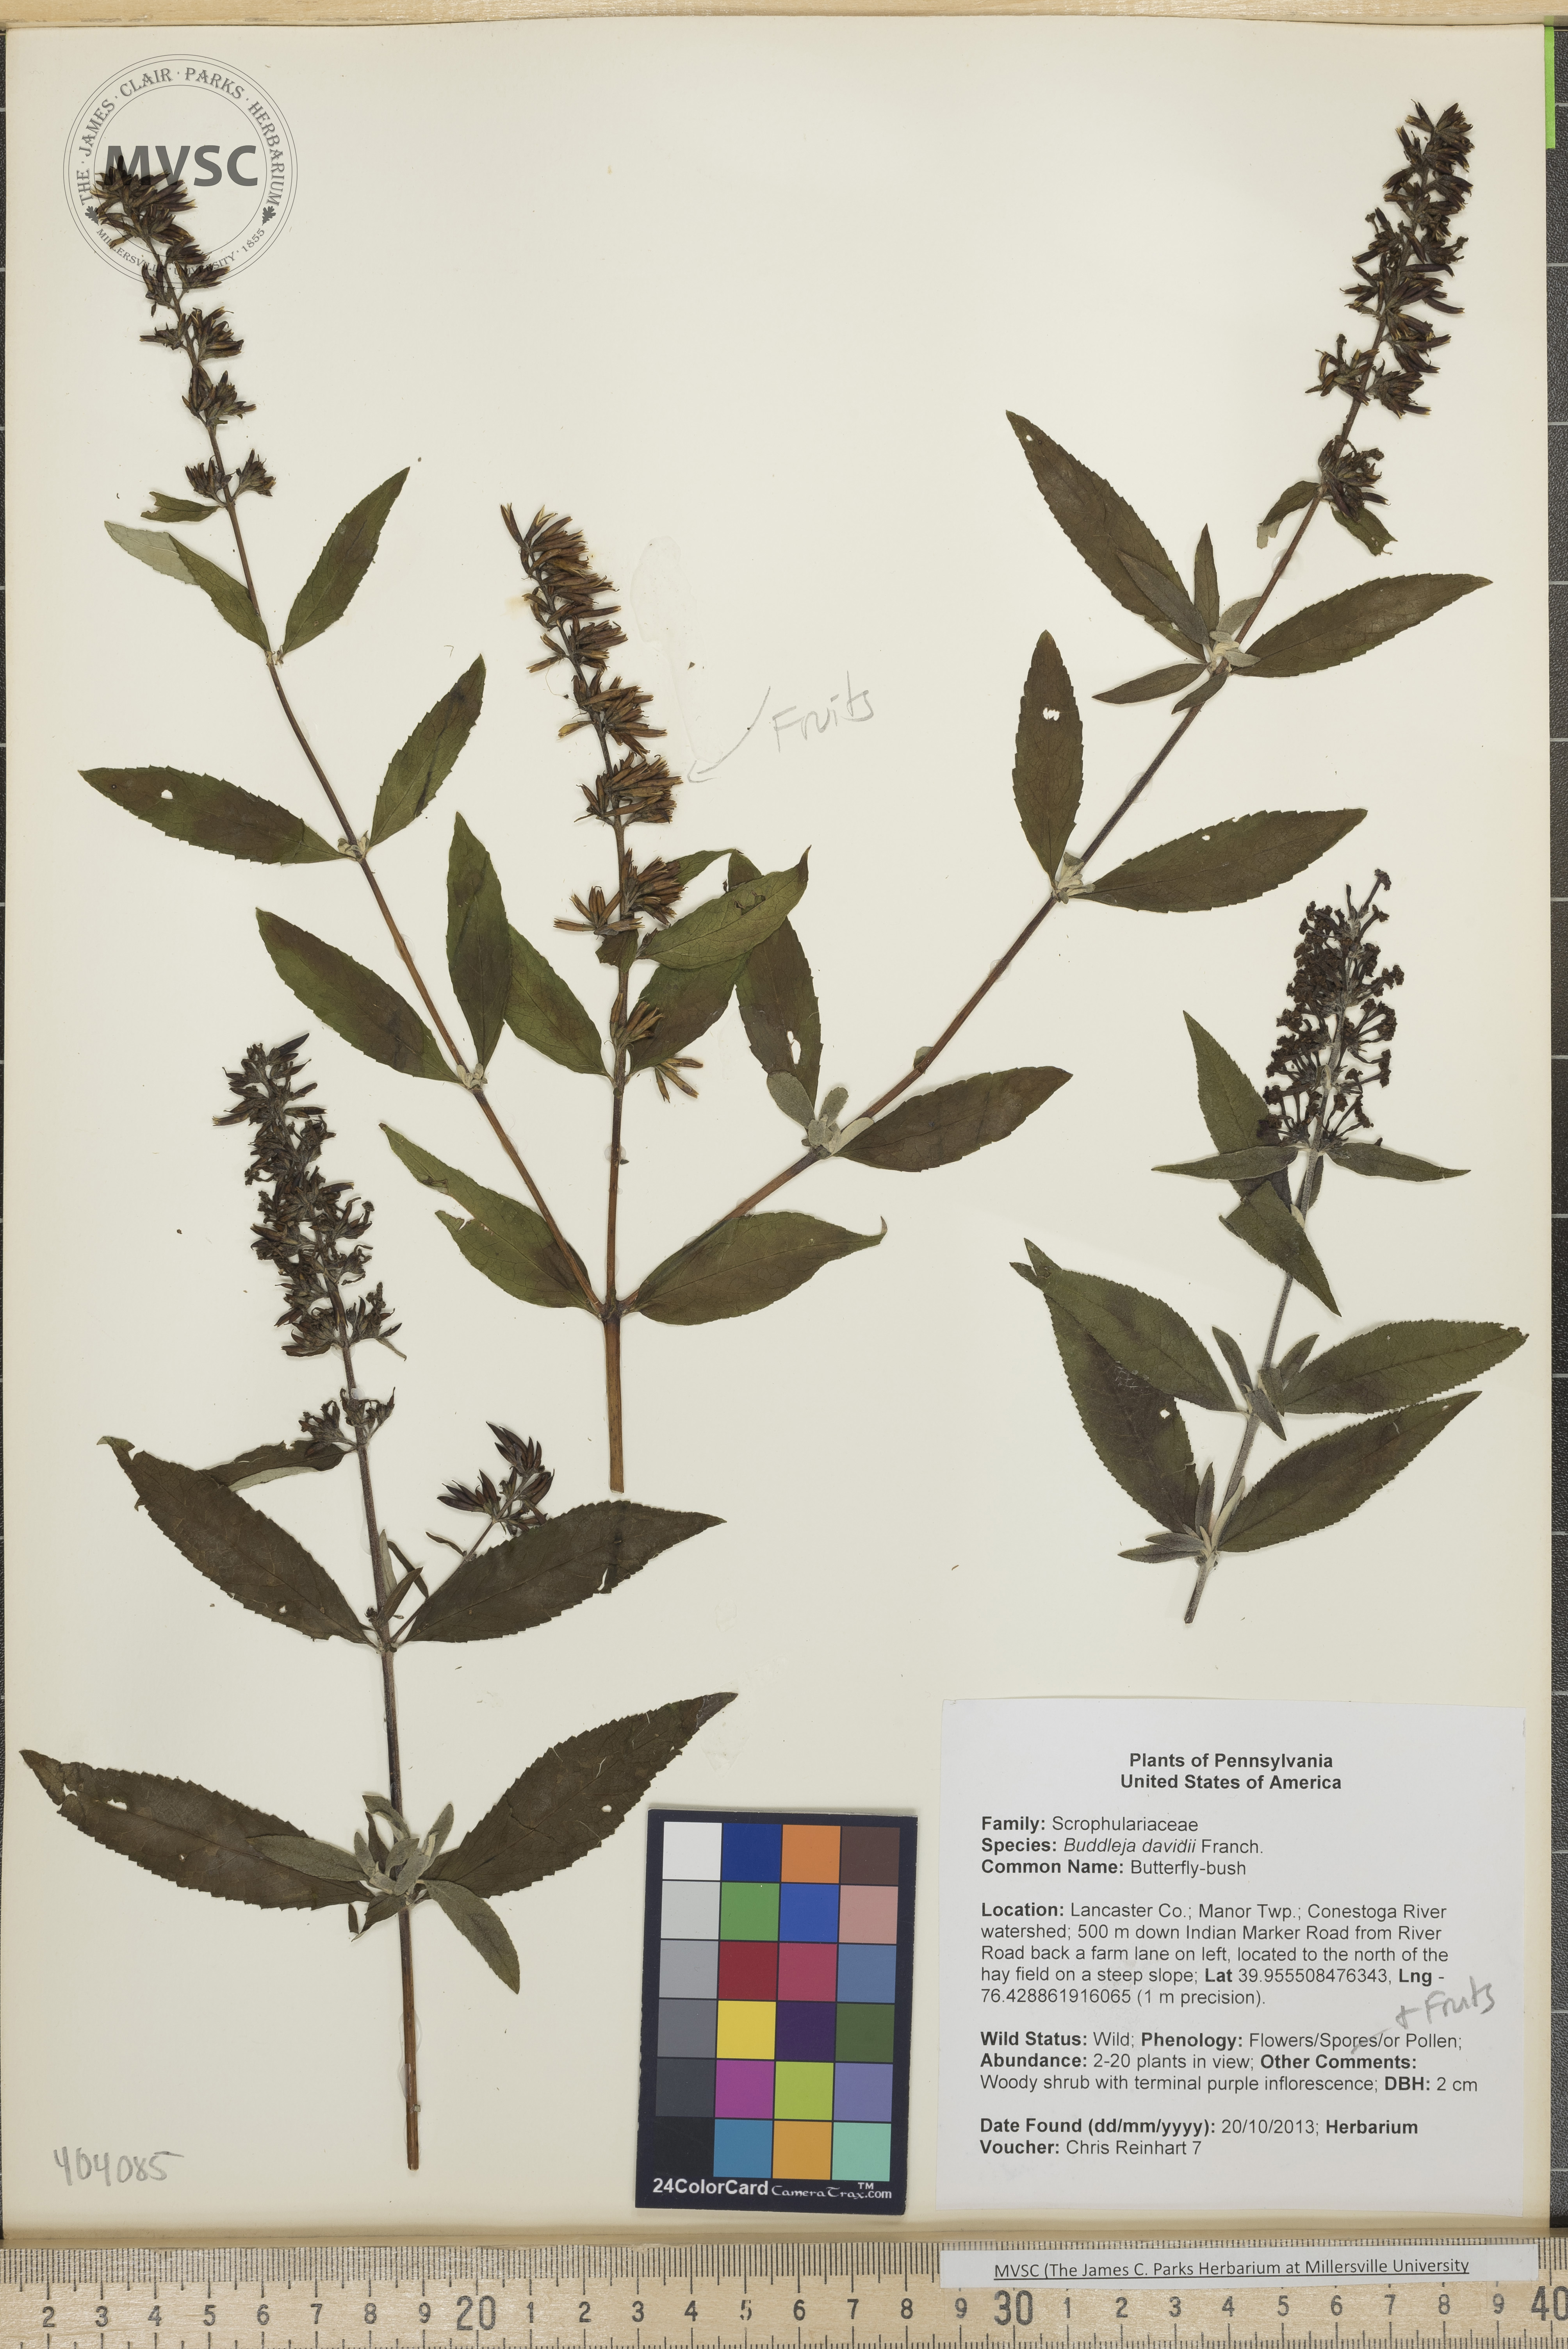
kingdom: Plantae
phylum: Tracheophyta
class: Magnoliopsida
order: Lamiales
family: Scrophulariaceae
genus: Buddleja
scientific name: Buddleja davidii
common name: Butterfly-bush
